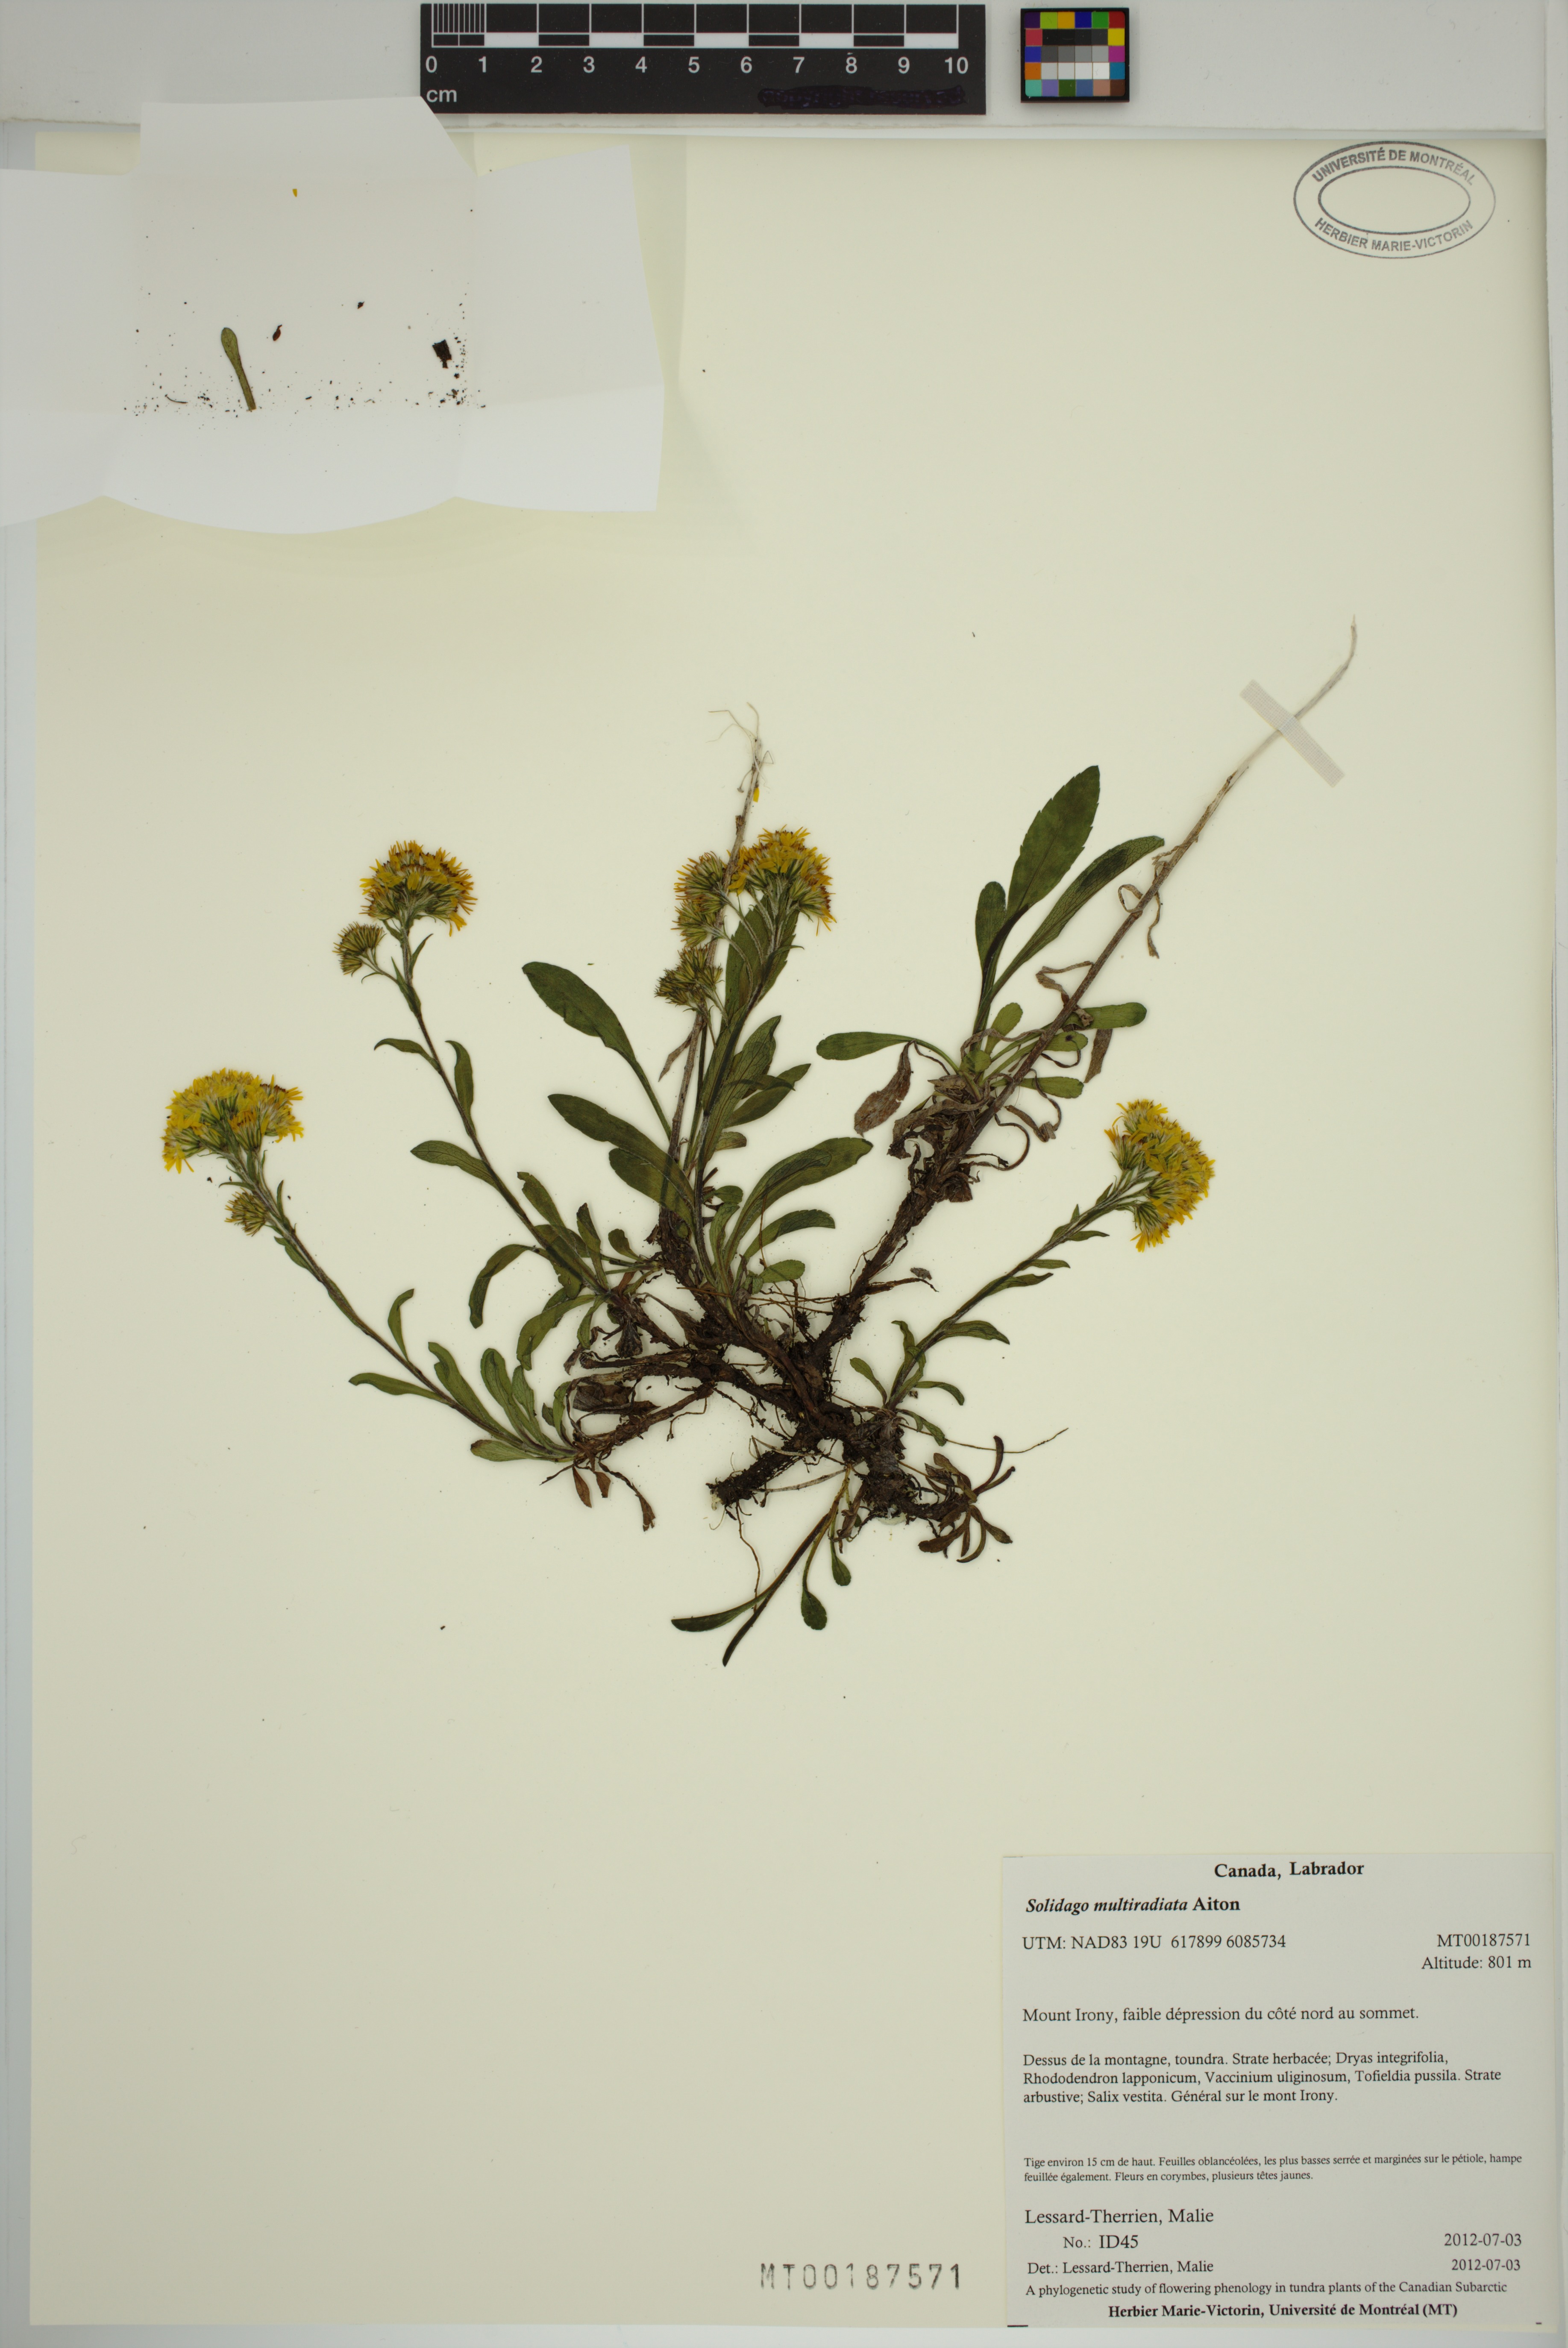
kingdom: Plantae
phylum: Tracheophyta
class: Magnoliopsida
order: Asterales
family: Asteraceae
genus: Solidago
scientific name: Solidago multiradiata
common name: Northern goldenrod
